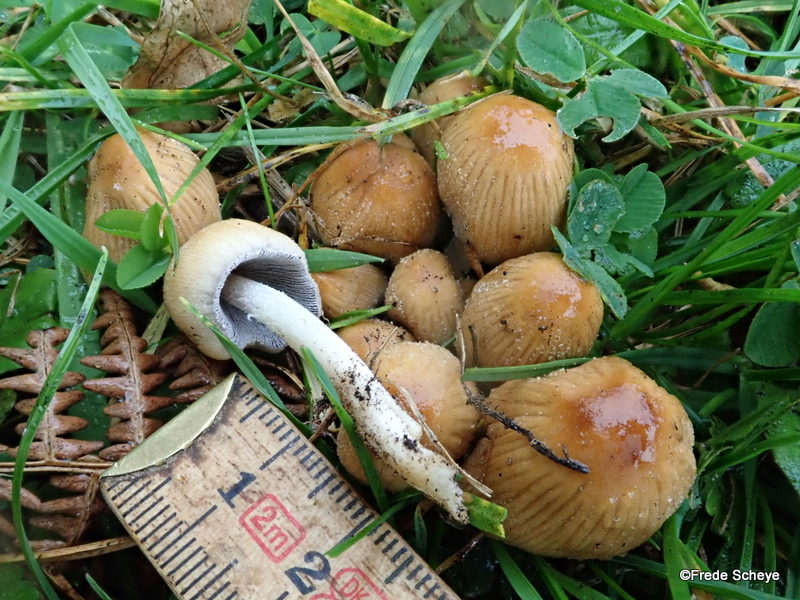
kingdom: Fungi
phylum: Basidiomycota
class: Agaricomycetes
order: Agaricales
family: Psathyrellaceae
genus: Coprinellus
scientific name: Coprinellus micaceus
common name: glimmer-blækhat
